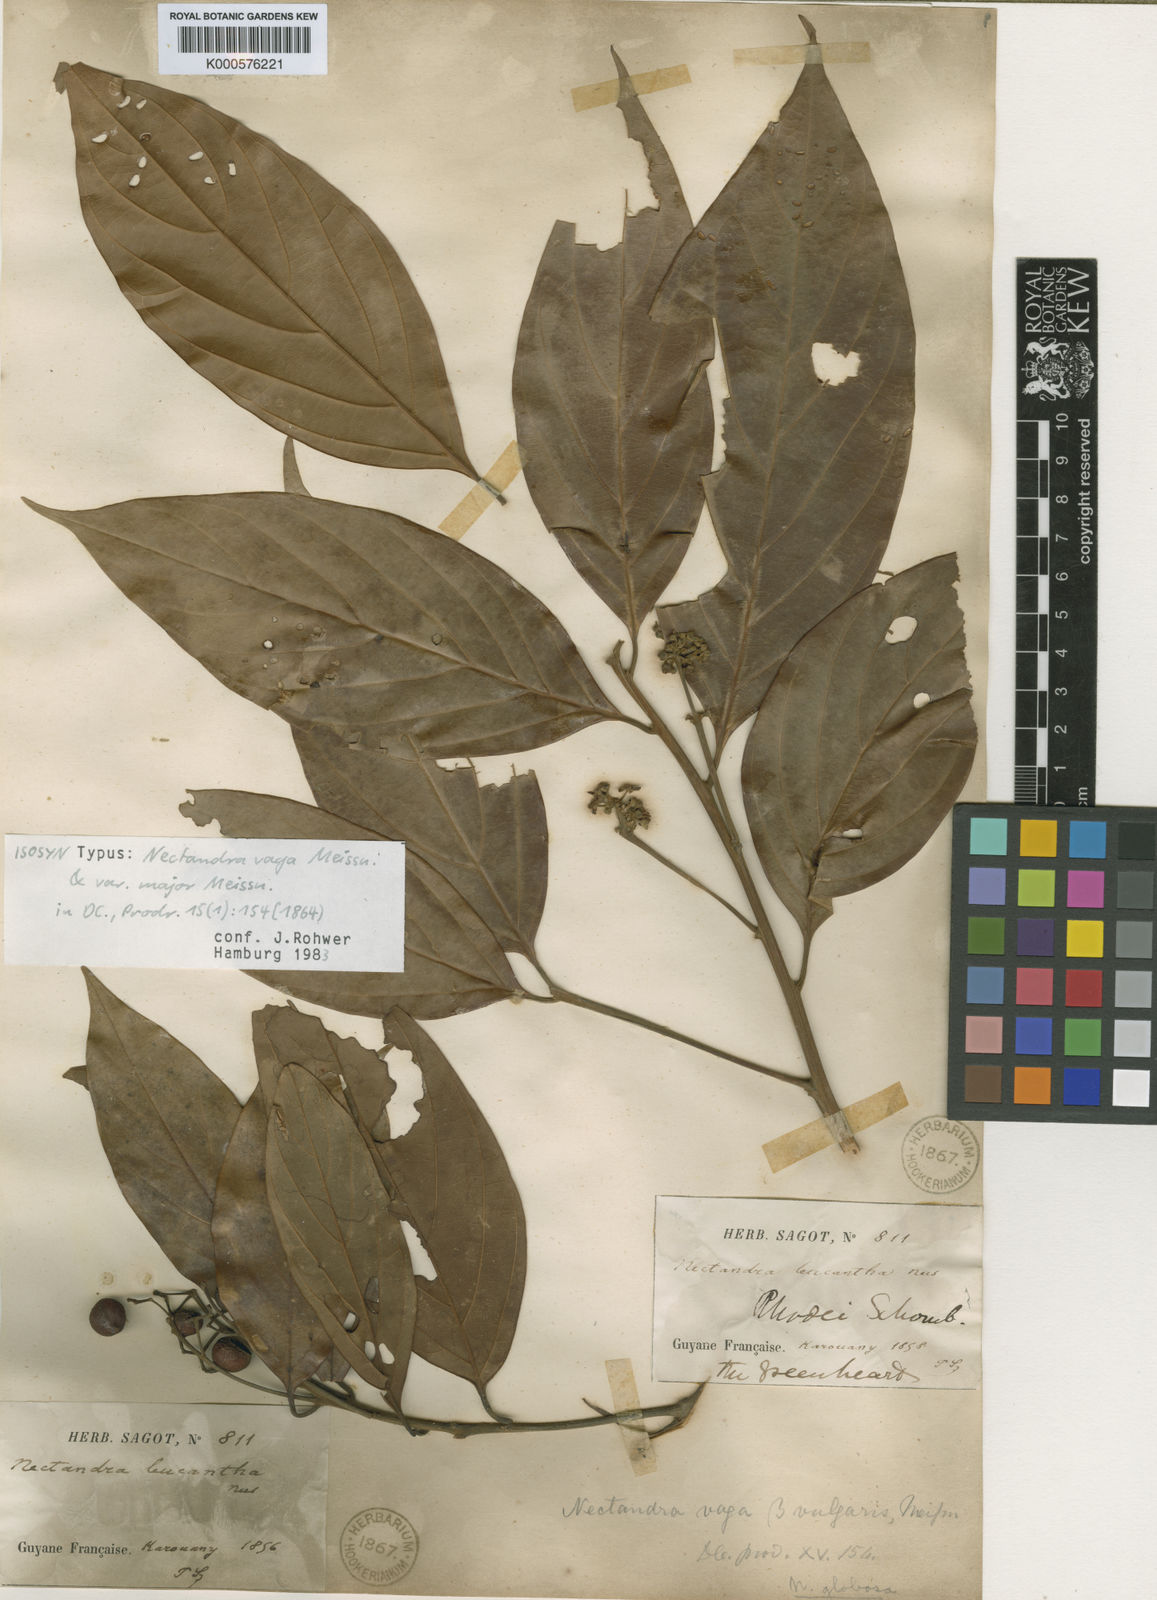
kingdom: Plantae
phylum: Tracheophyta
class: Magnoliopsida
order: Laurales
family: Lauraceae
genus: Nectandra
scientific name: Nectandra globosa
